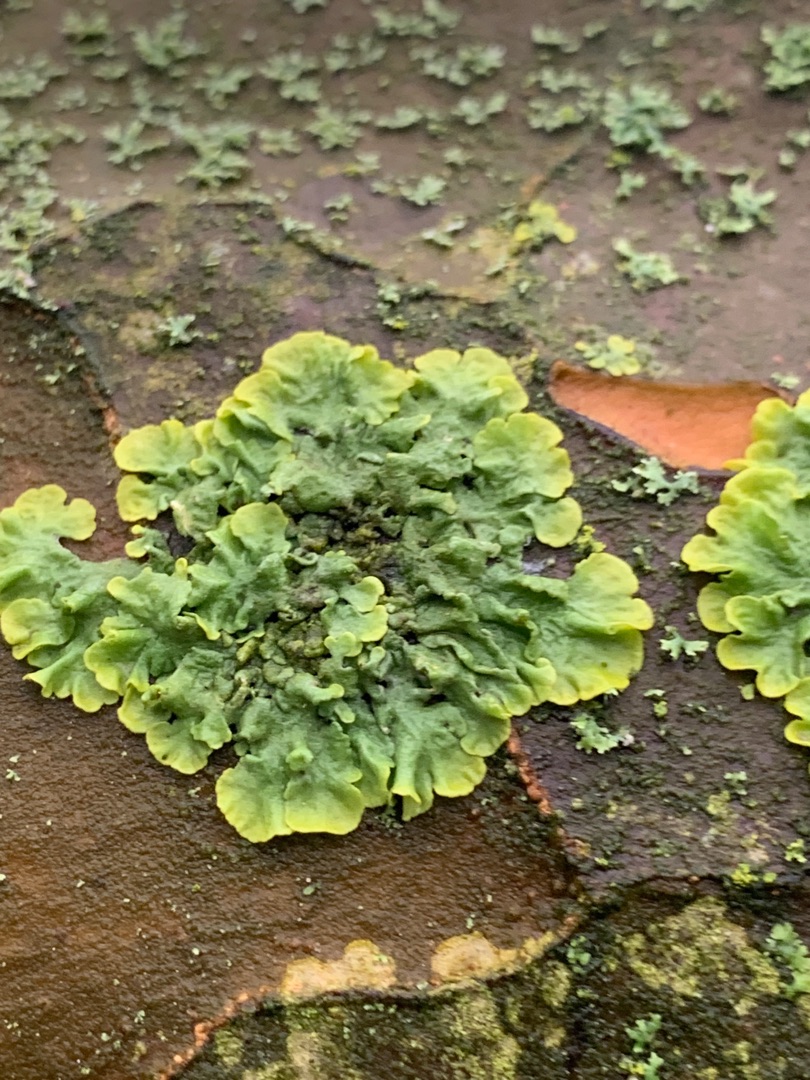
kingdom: Fungi
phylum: Ascomycota
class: Lecanoromycetes
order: Teloschistales
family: Teloschistaceae
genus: Xanthoria
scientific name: Xanthoria parietina
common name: Almindelig væggelav
